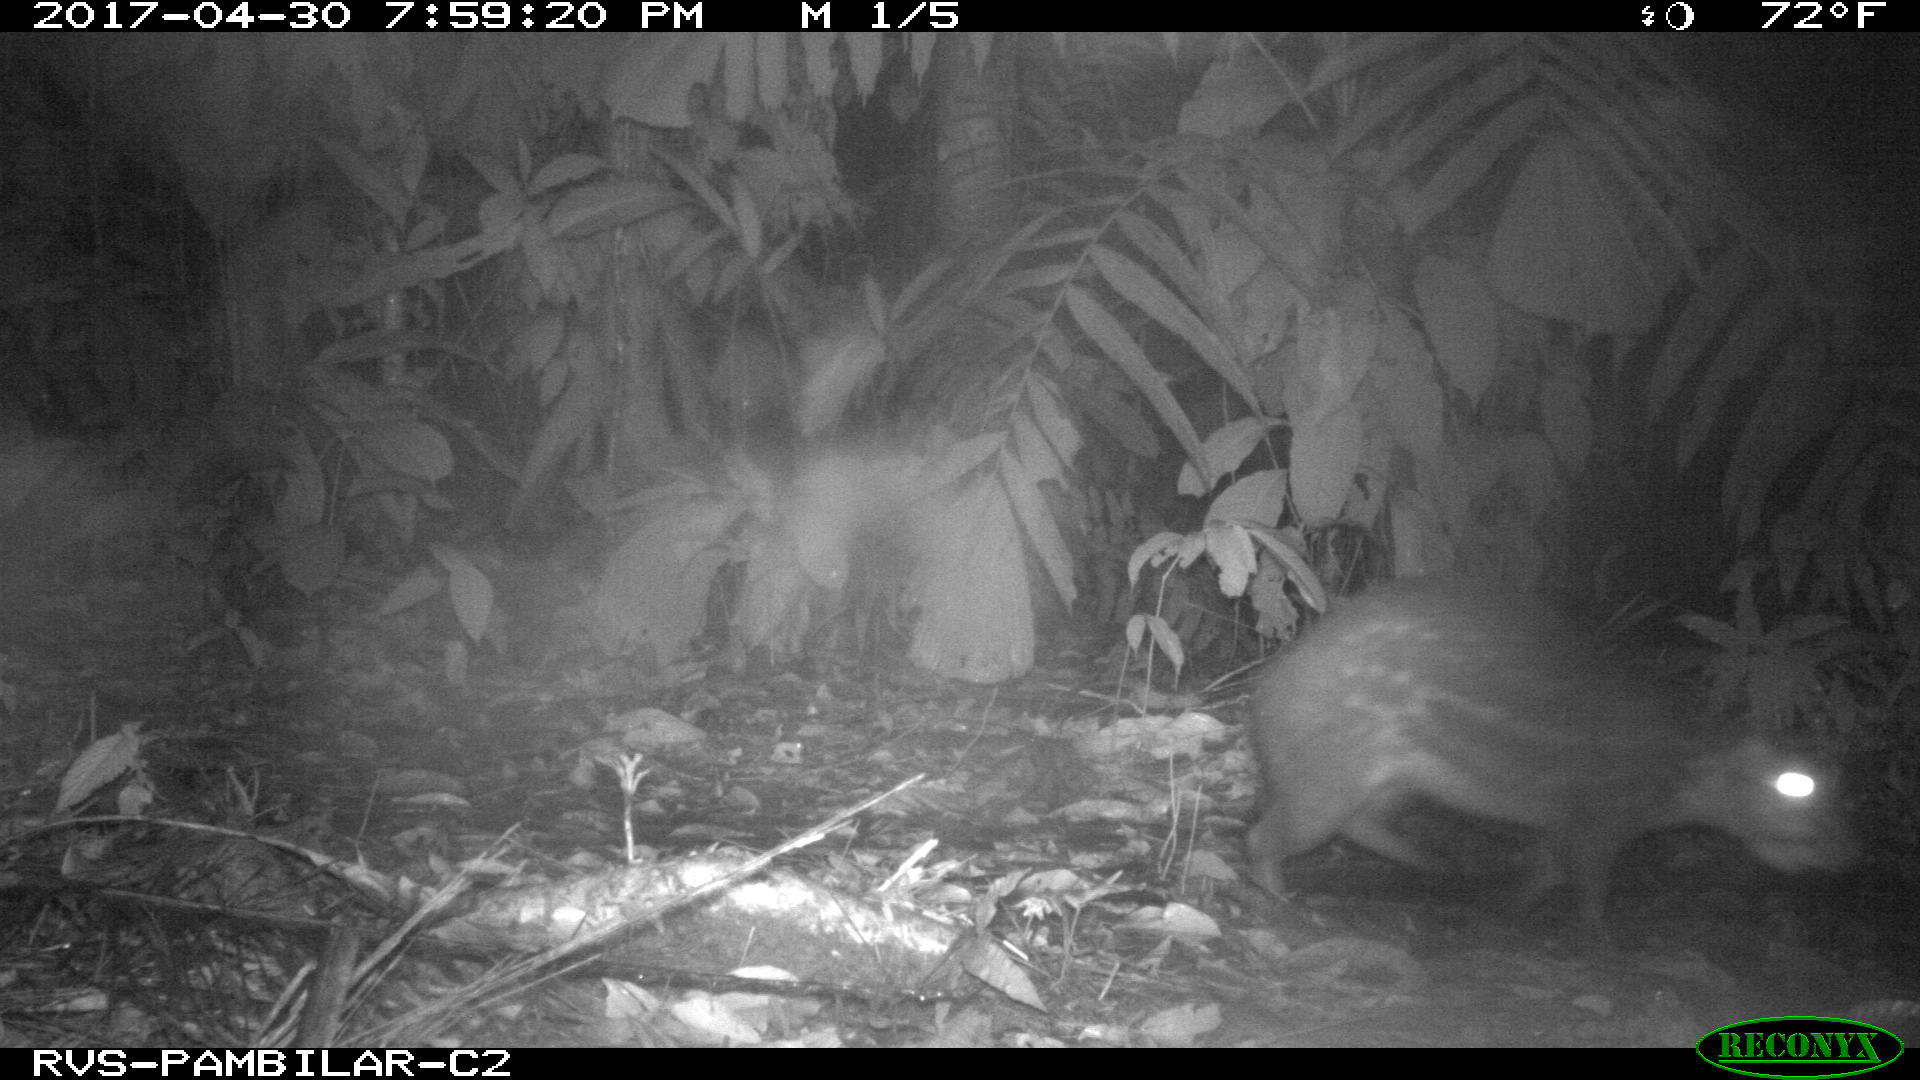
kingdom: Animalia
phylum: Chordata
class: Mammalia
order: Rodentia
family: Cuniculidae
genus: Cuniculus
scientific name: Cuniculus paca
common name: Lowland paca
